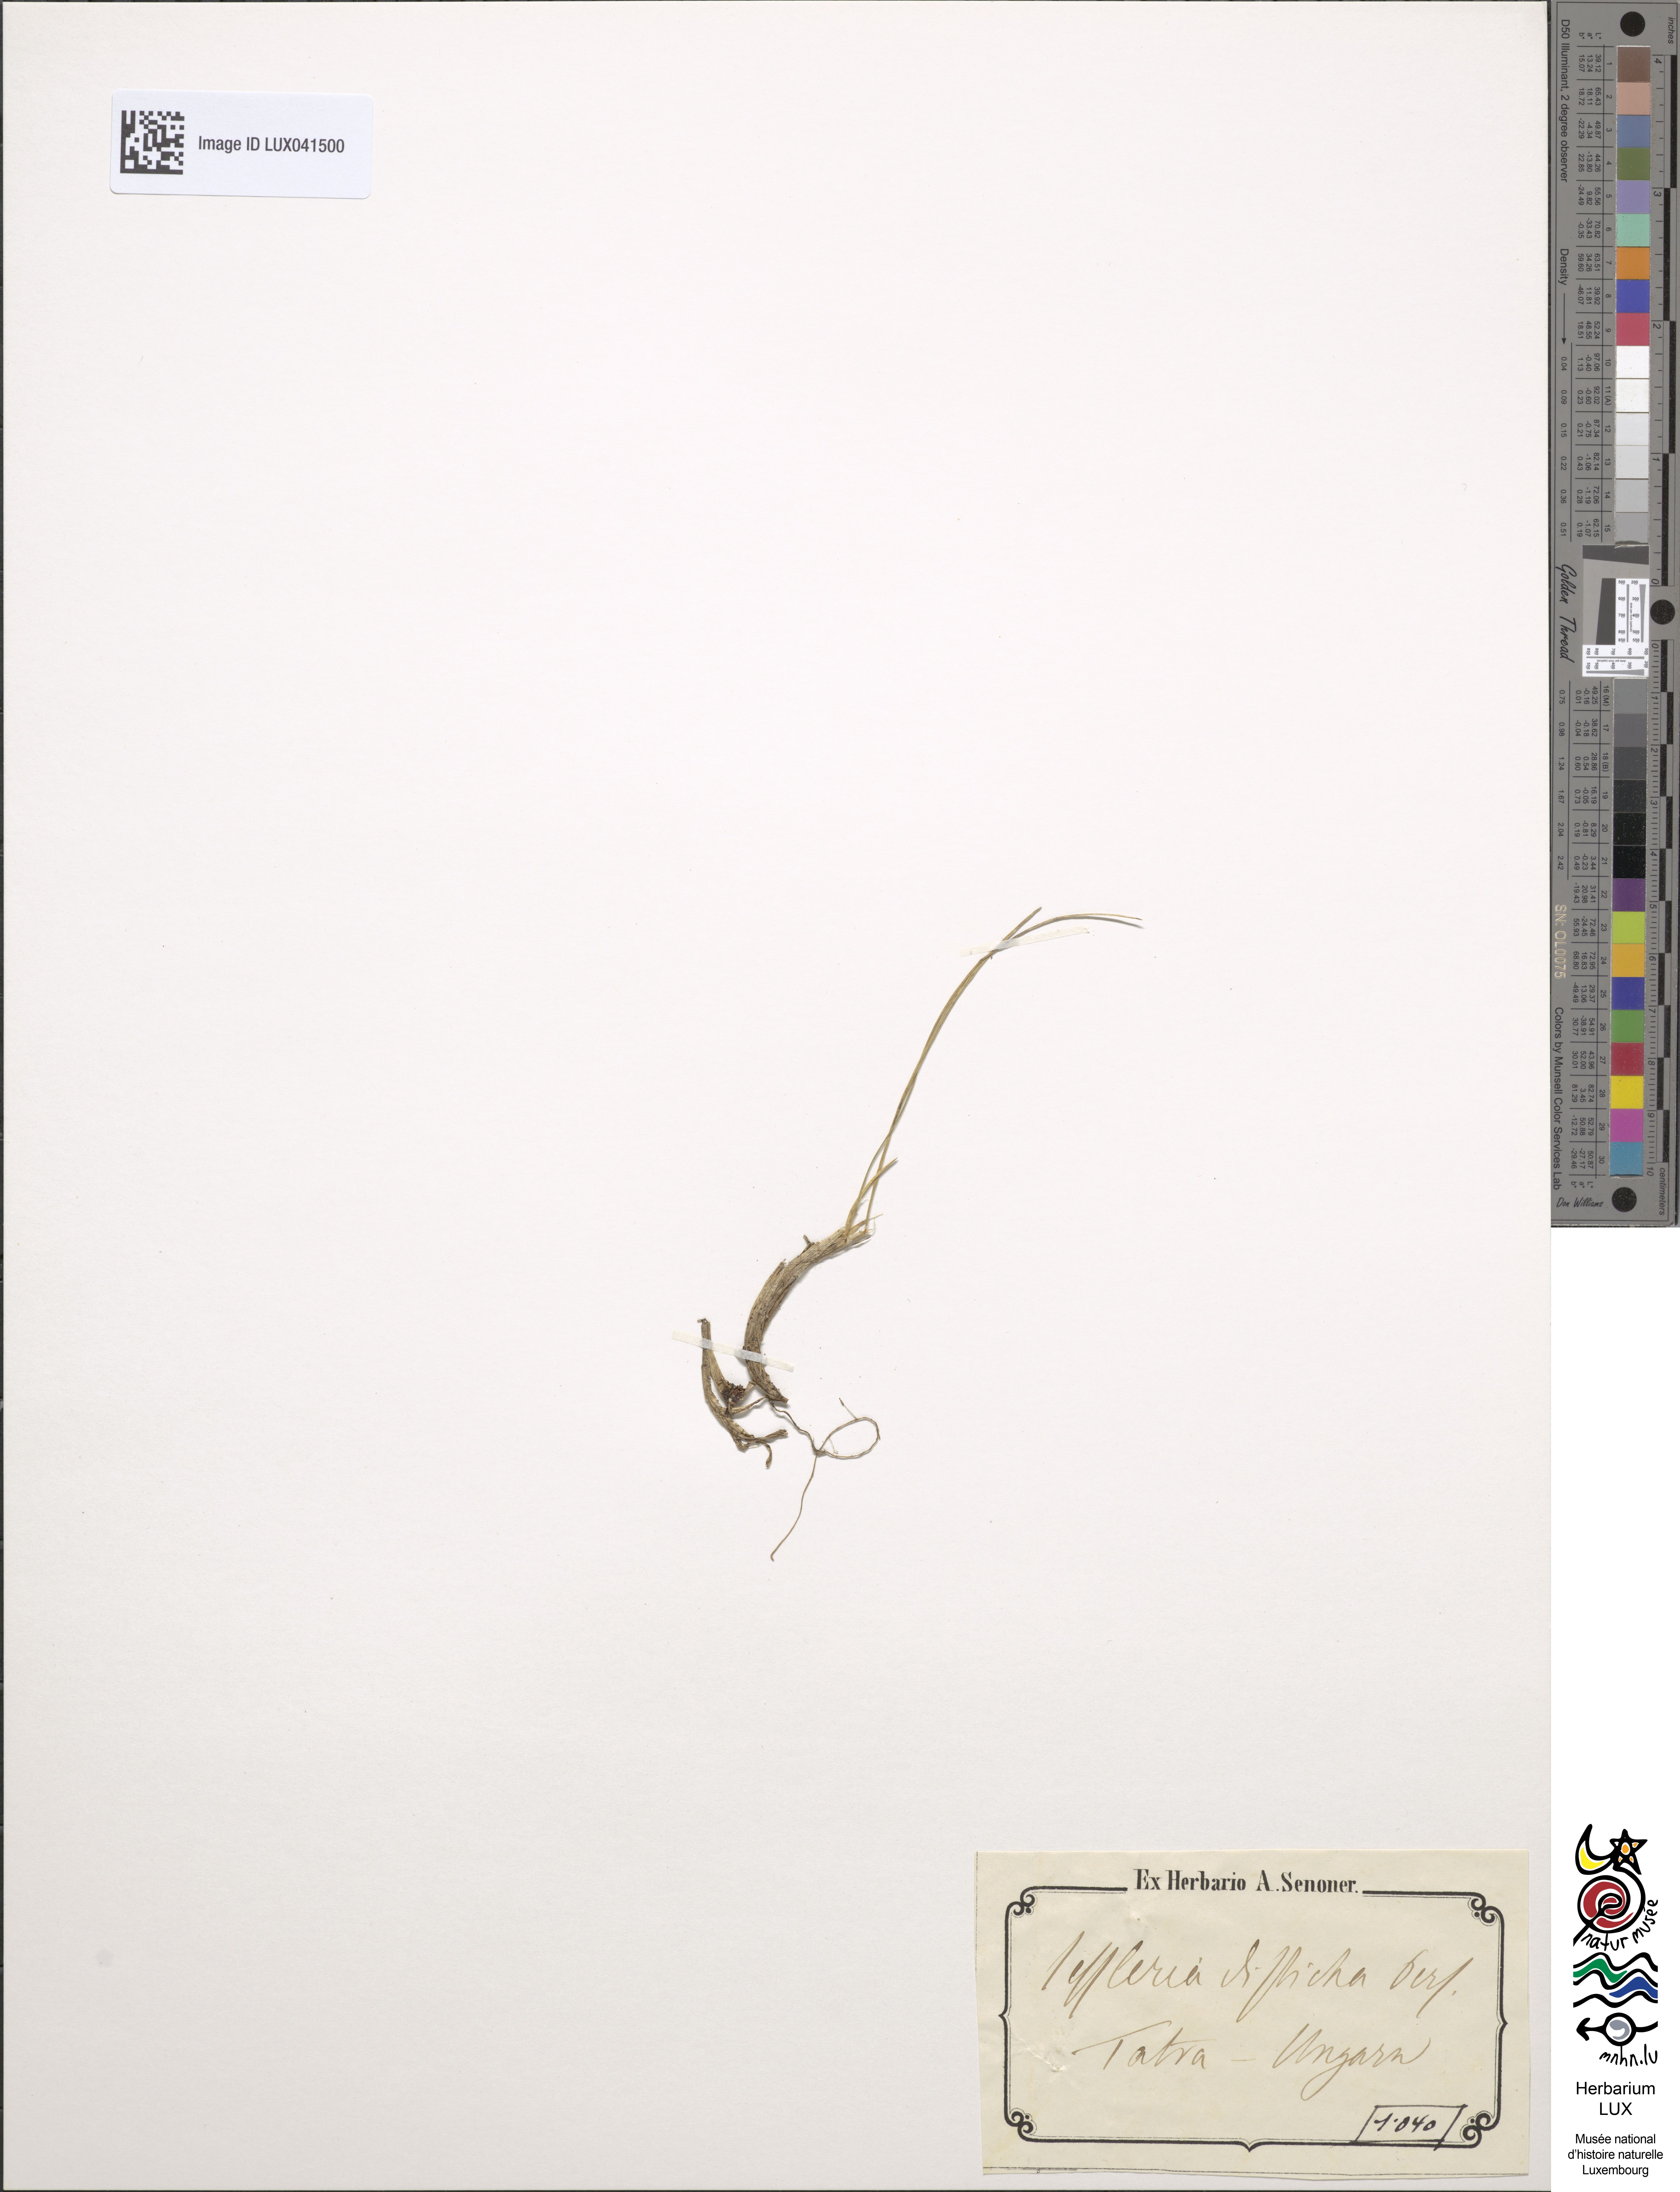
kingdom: Plantae
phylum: Tracheophyta
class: Liliopsida
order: Poales
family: Poaceae
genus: Oreochloa
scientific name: Oreochloa disticha
